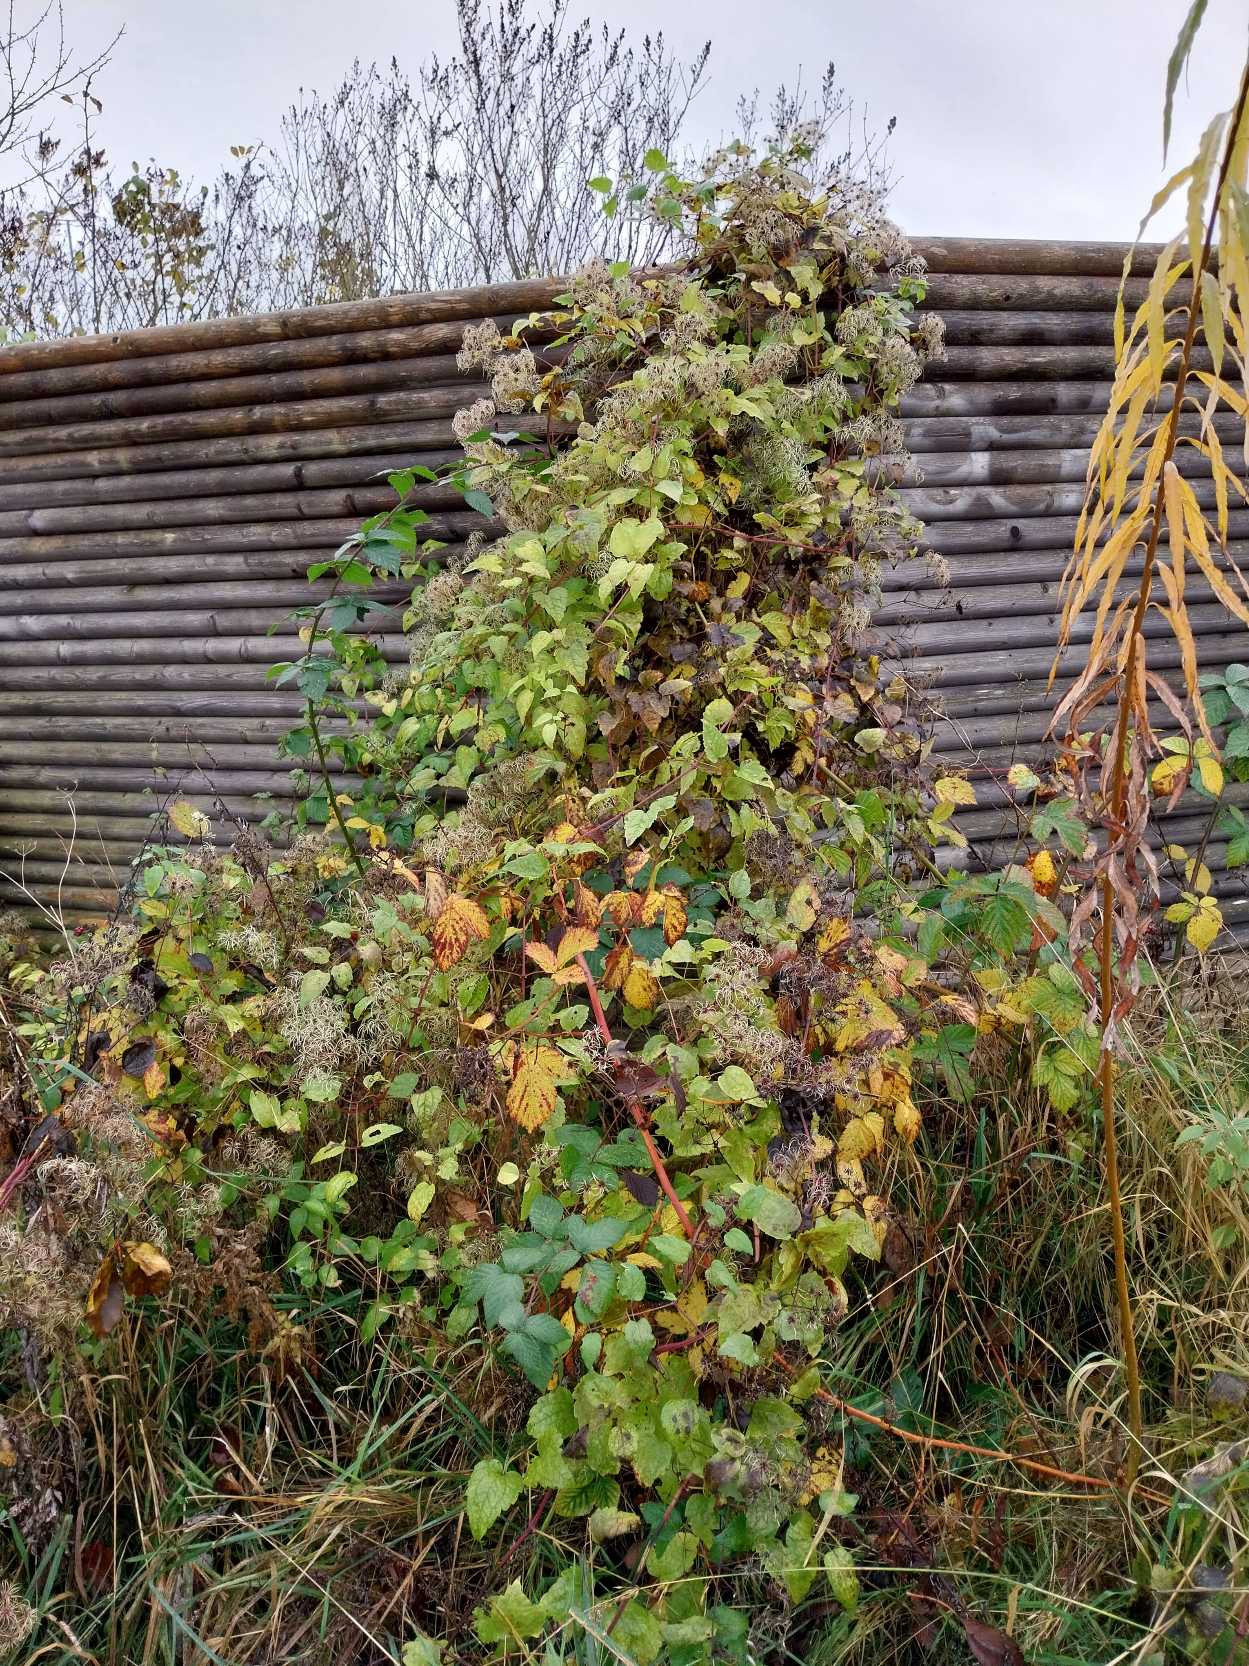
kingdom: Plantae
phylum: Tracheophyta
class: Magnoliopsida
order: Ranunculales
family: Ranunculaceae
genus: Clematis
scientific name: Clematis vitalba
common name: Skovranke
